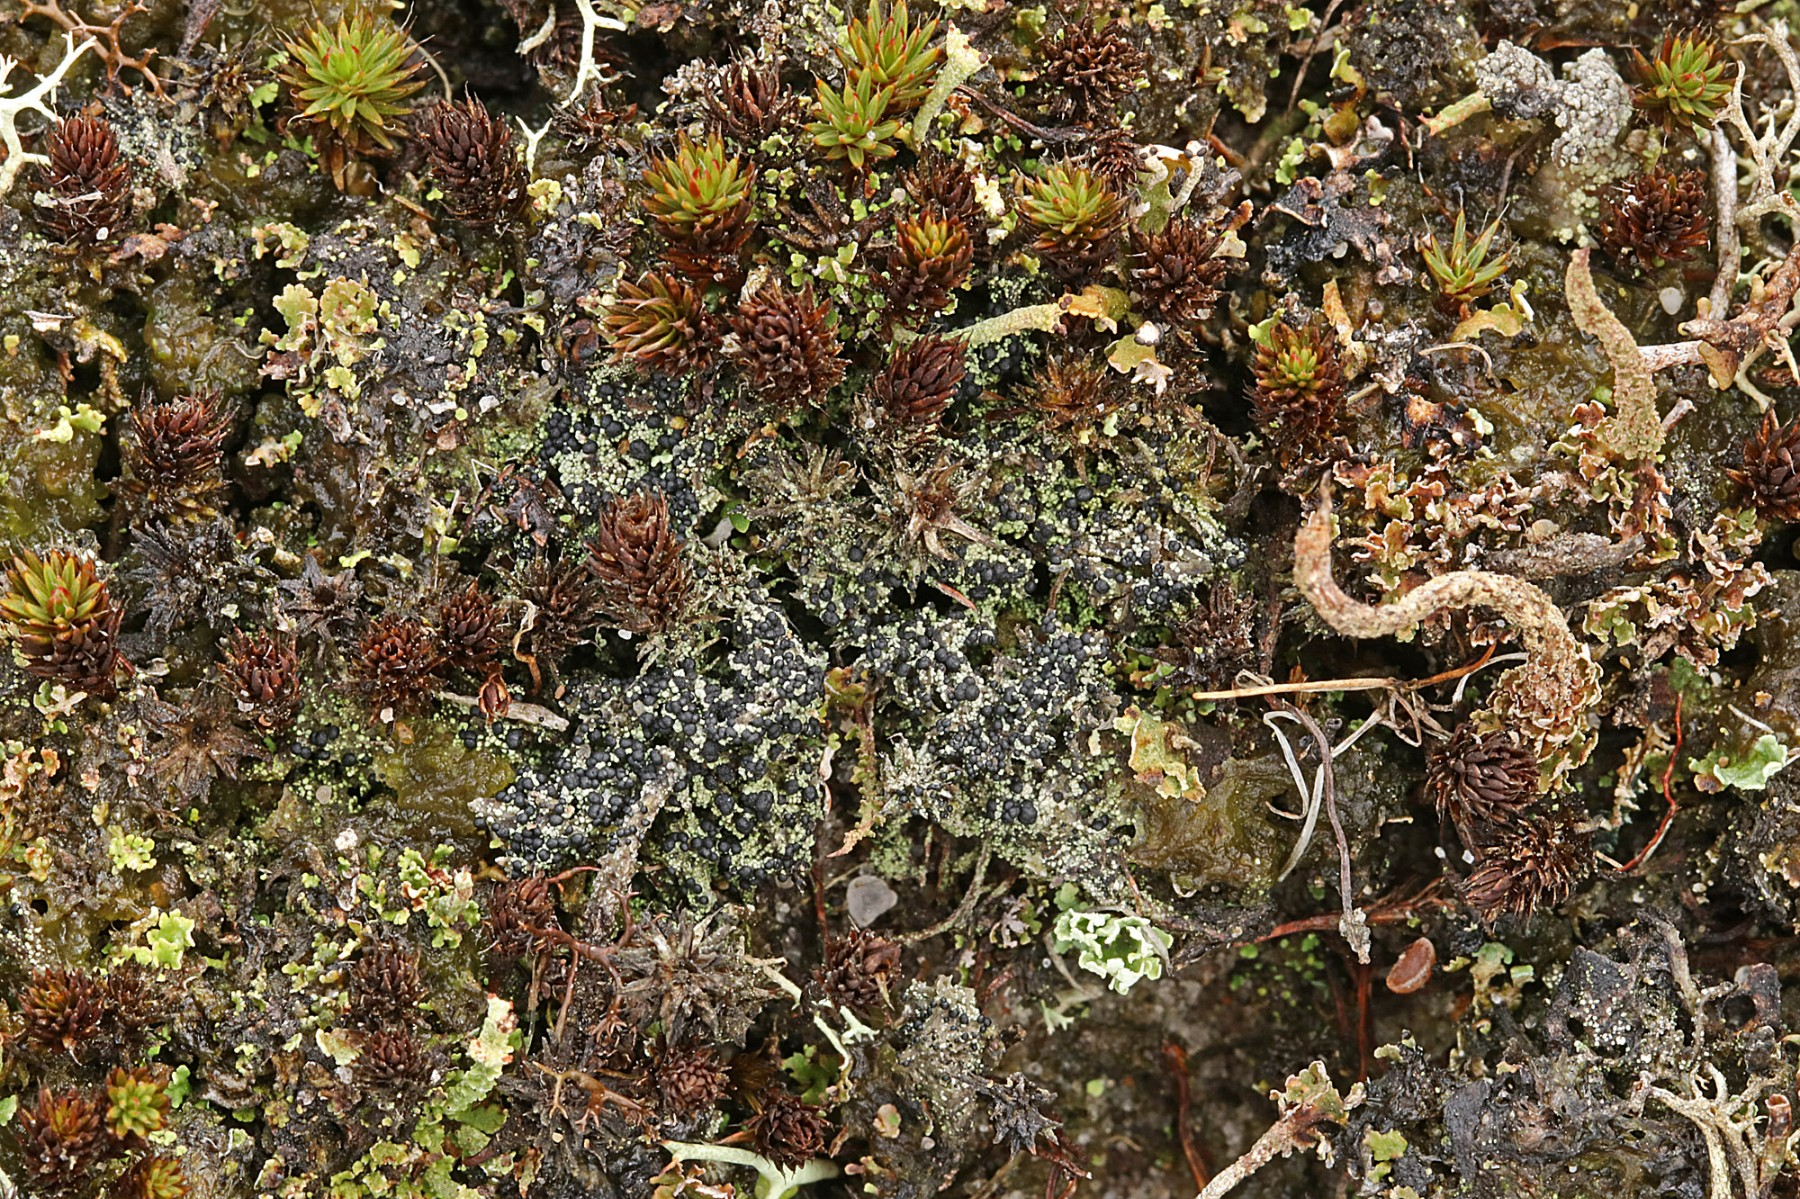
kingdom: Fungi
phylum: Ascomycota
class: Lecanoromycetes
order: Lecanorales
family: Byssolomataceae
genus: Micarea
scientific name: Micarea lignaria
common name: tørve-knaplav
